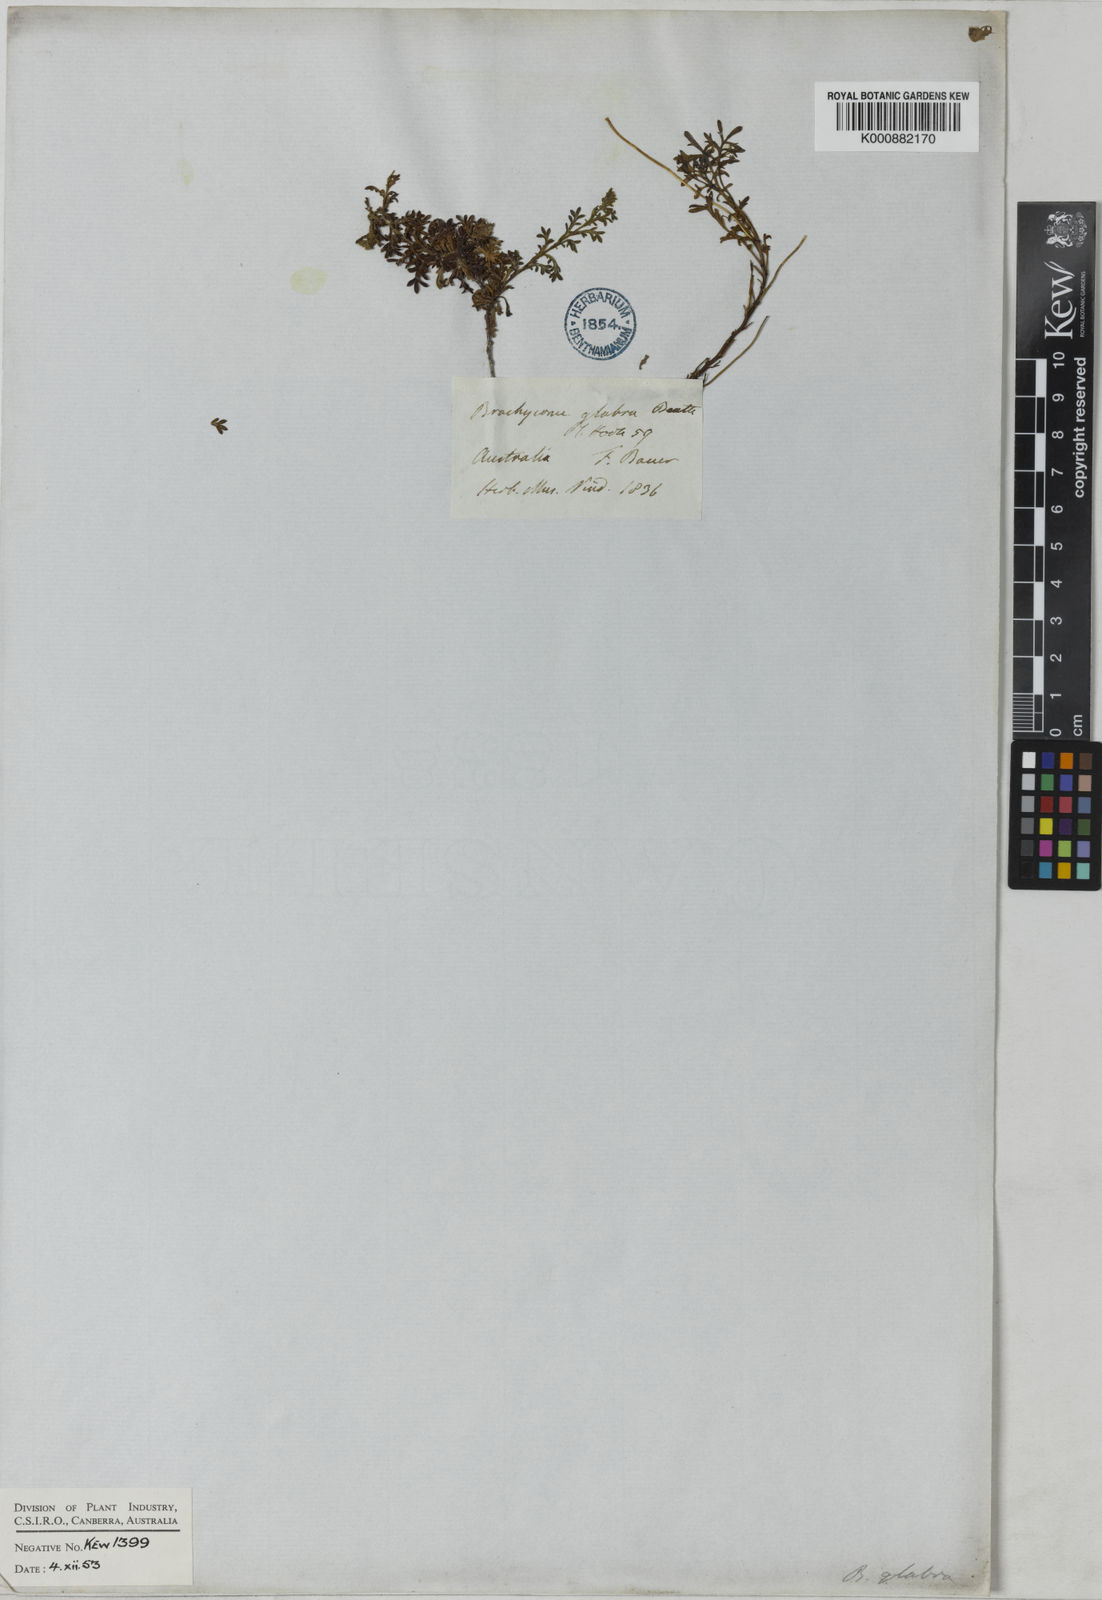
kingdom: Plantae
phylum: Tracheophyta
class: Magnoliopsida
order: Asterales
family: Asteraceae
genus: Brachyscome
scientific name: Brachyscome multifida
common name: Cut-leaf daisy
